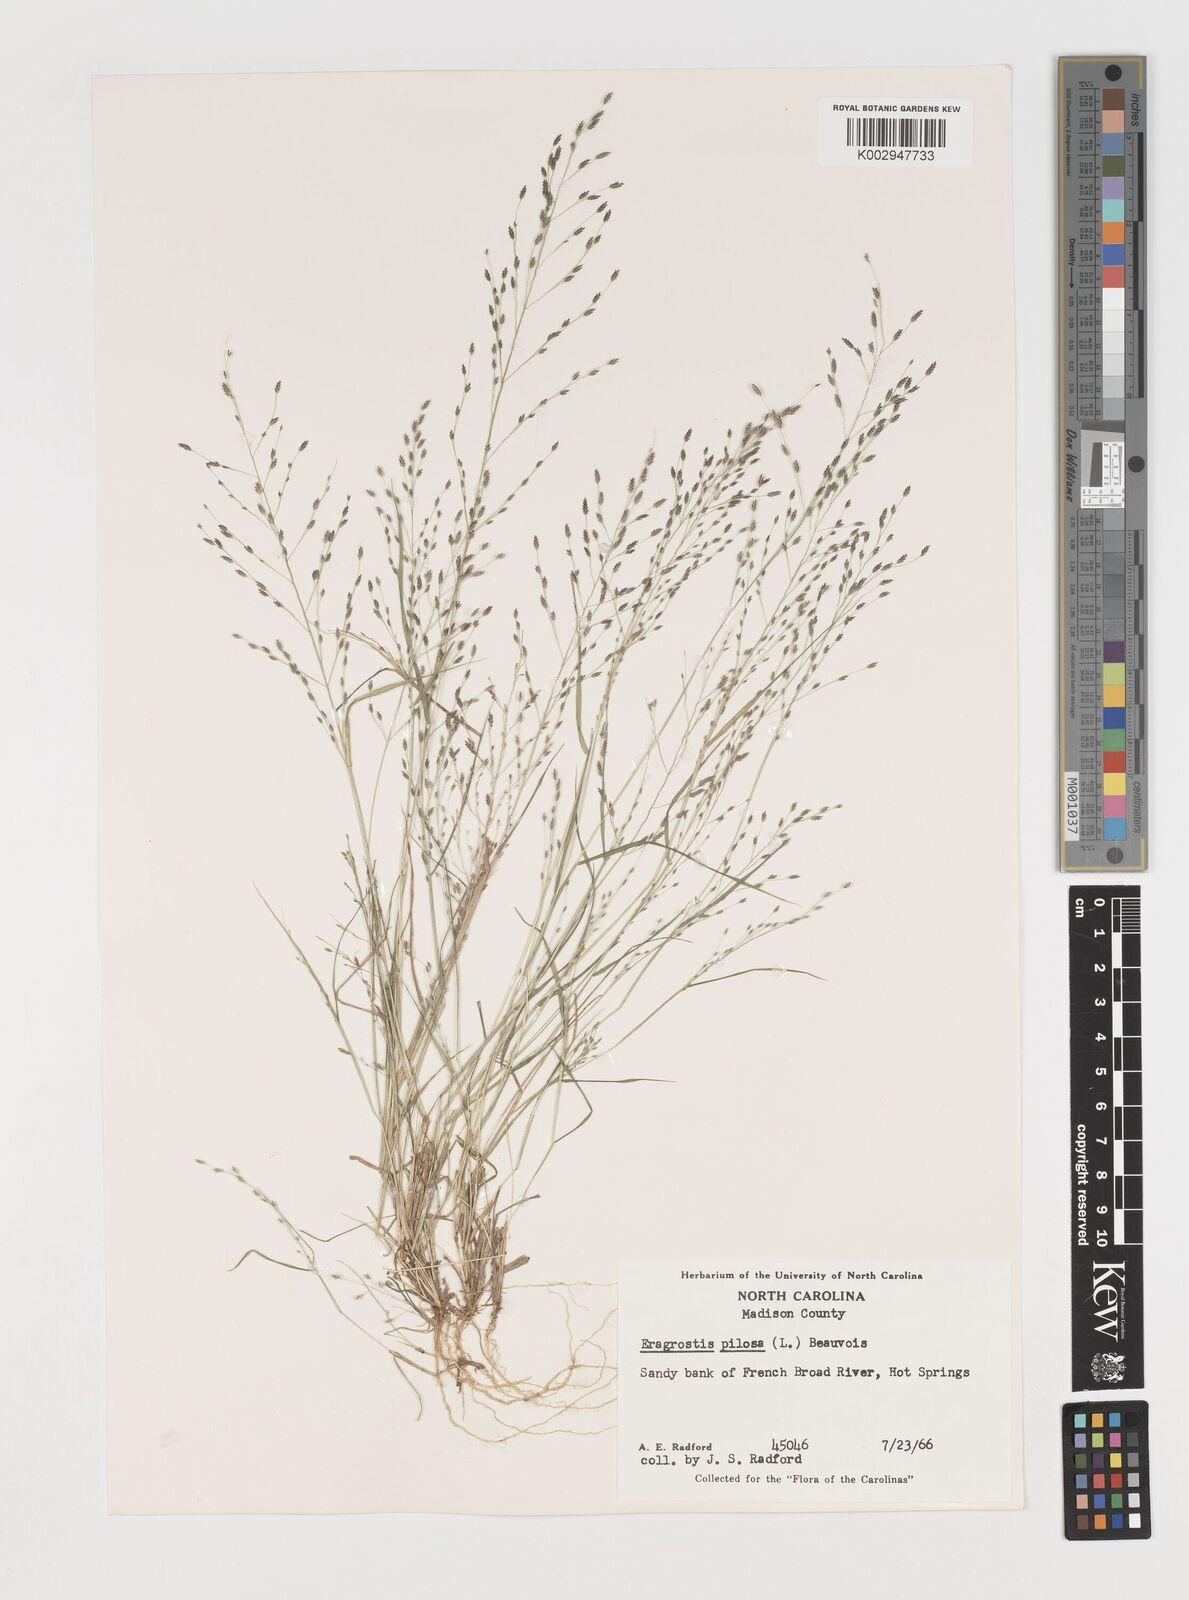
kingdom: Plantae
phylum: Tracheophyta
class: Liliopsida
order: Poales
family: Poaceae
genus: Eragrostis
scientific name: Eragrostis pilosa
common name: Indian lovegrass
